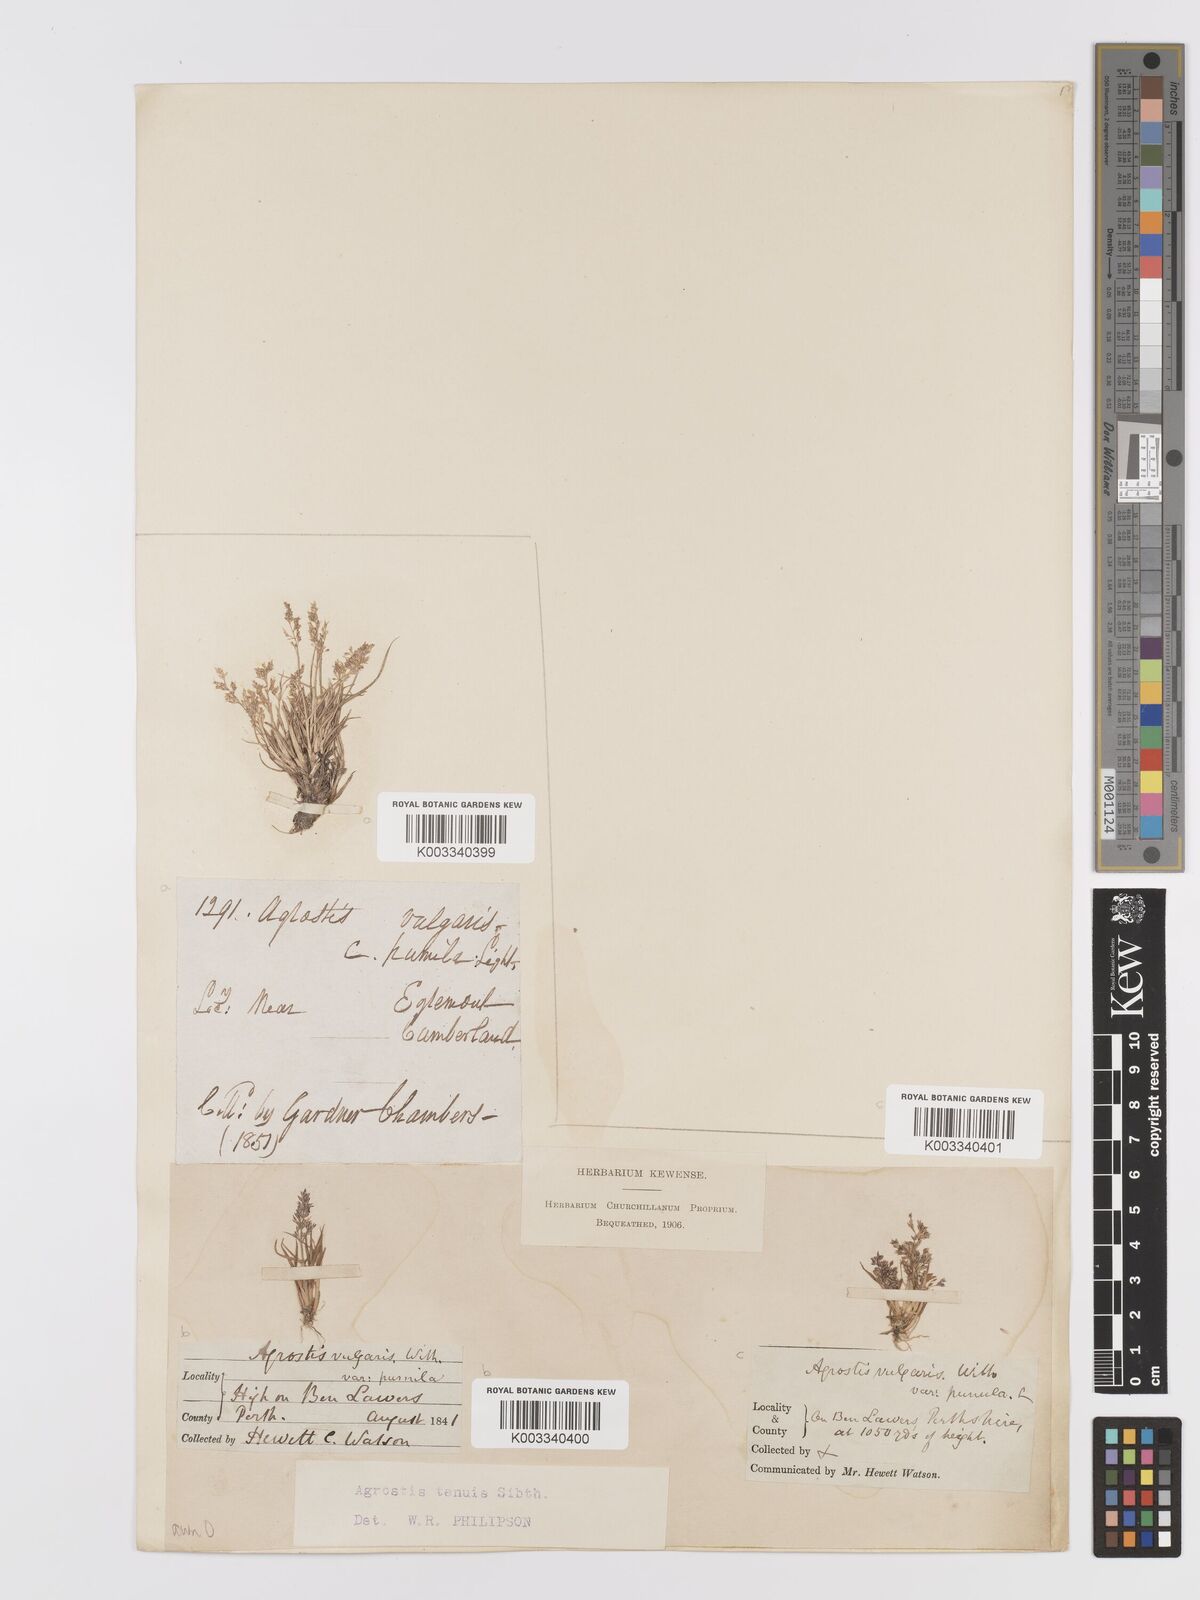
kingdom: Plantae
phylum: Tracheophyta
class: Liliopsida
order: Poales
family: Poaceae
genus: Agrostis
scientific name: Agrostis capillaris
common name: Colonial bentgrass
